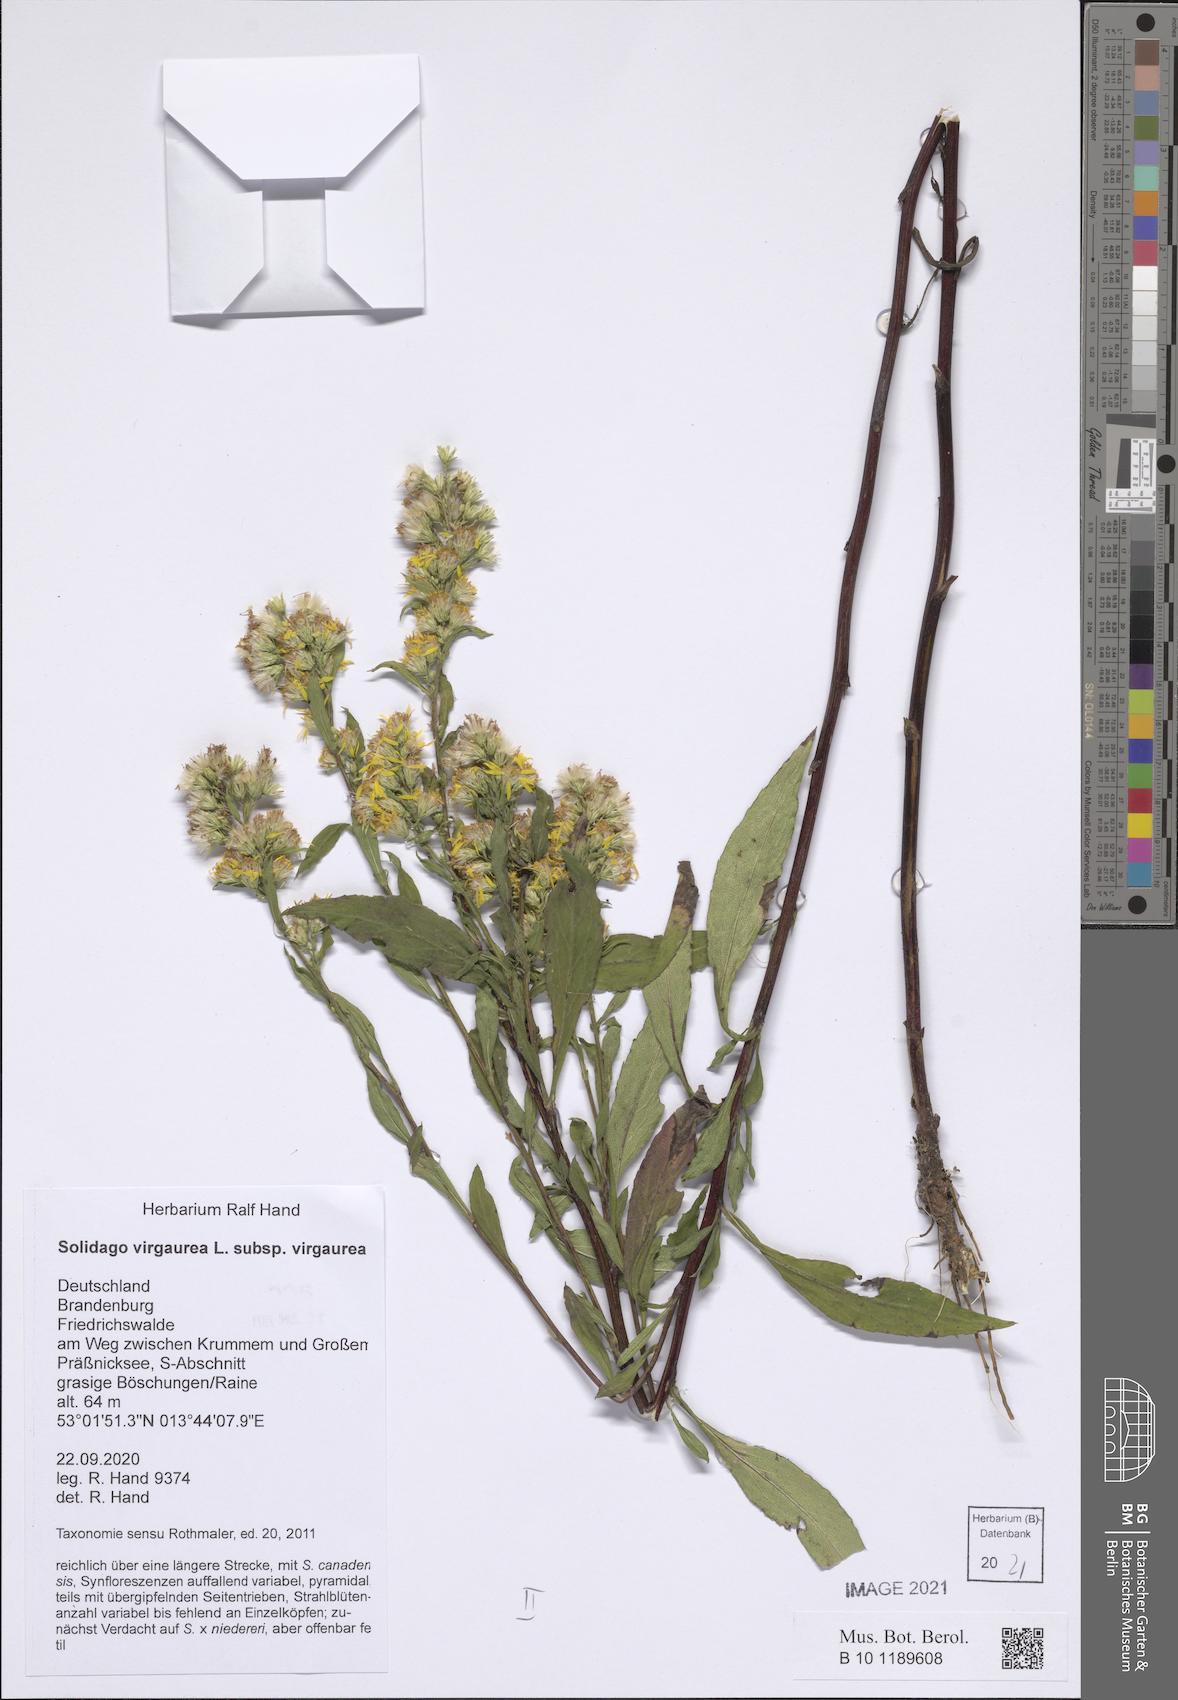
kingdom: Plantae
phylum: Tracheophyta
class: Magnoliopsida
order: Asterales
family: Asteraceae
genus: Solidago
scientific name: Solidago virgaurea
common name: Goldenrod
